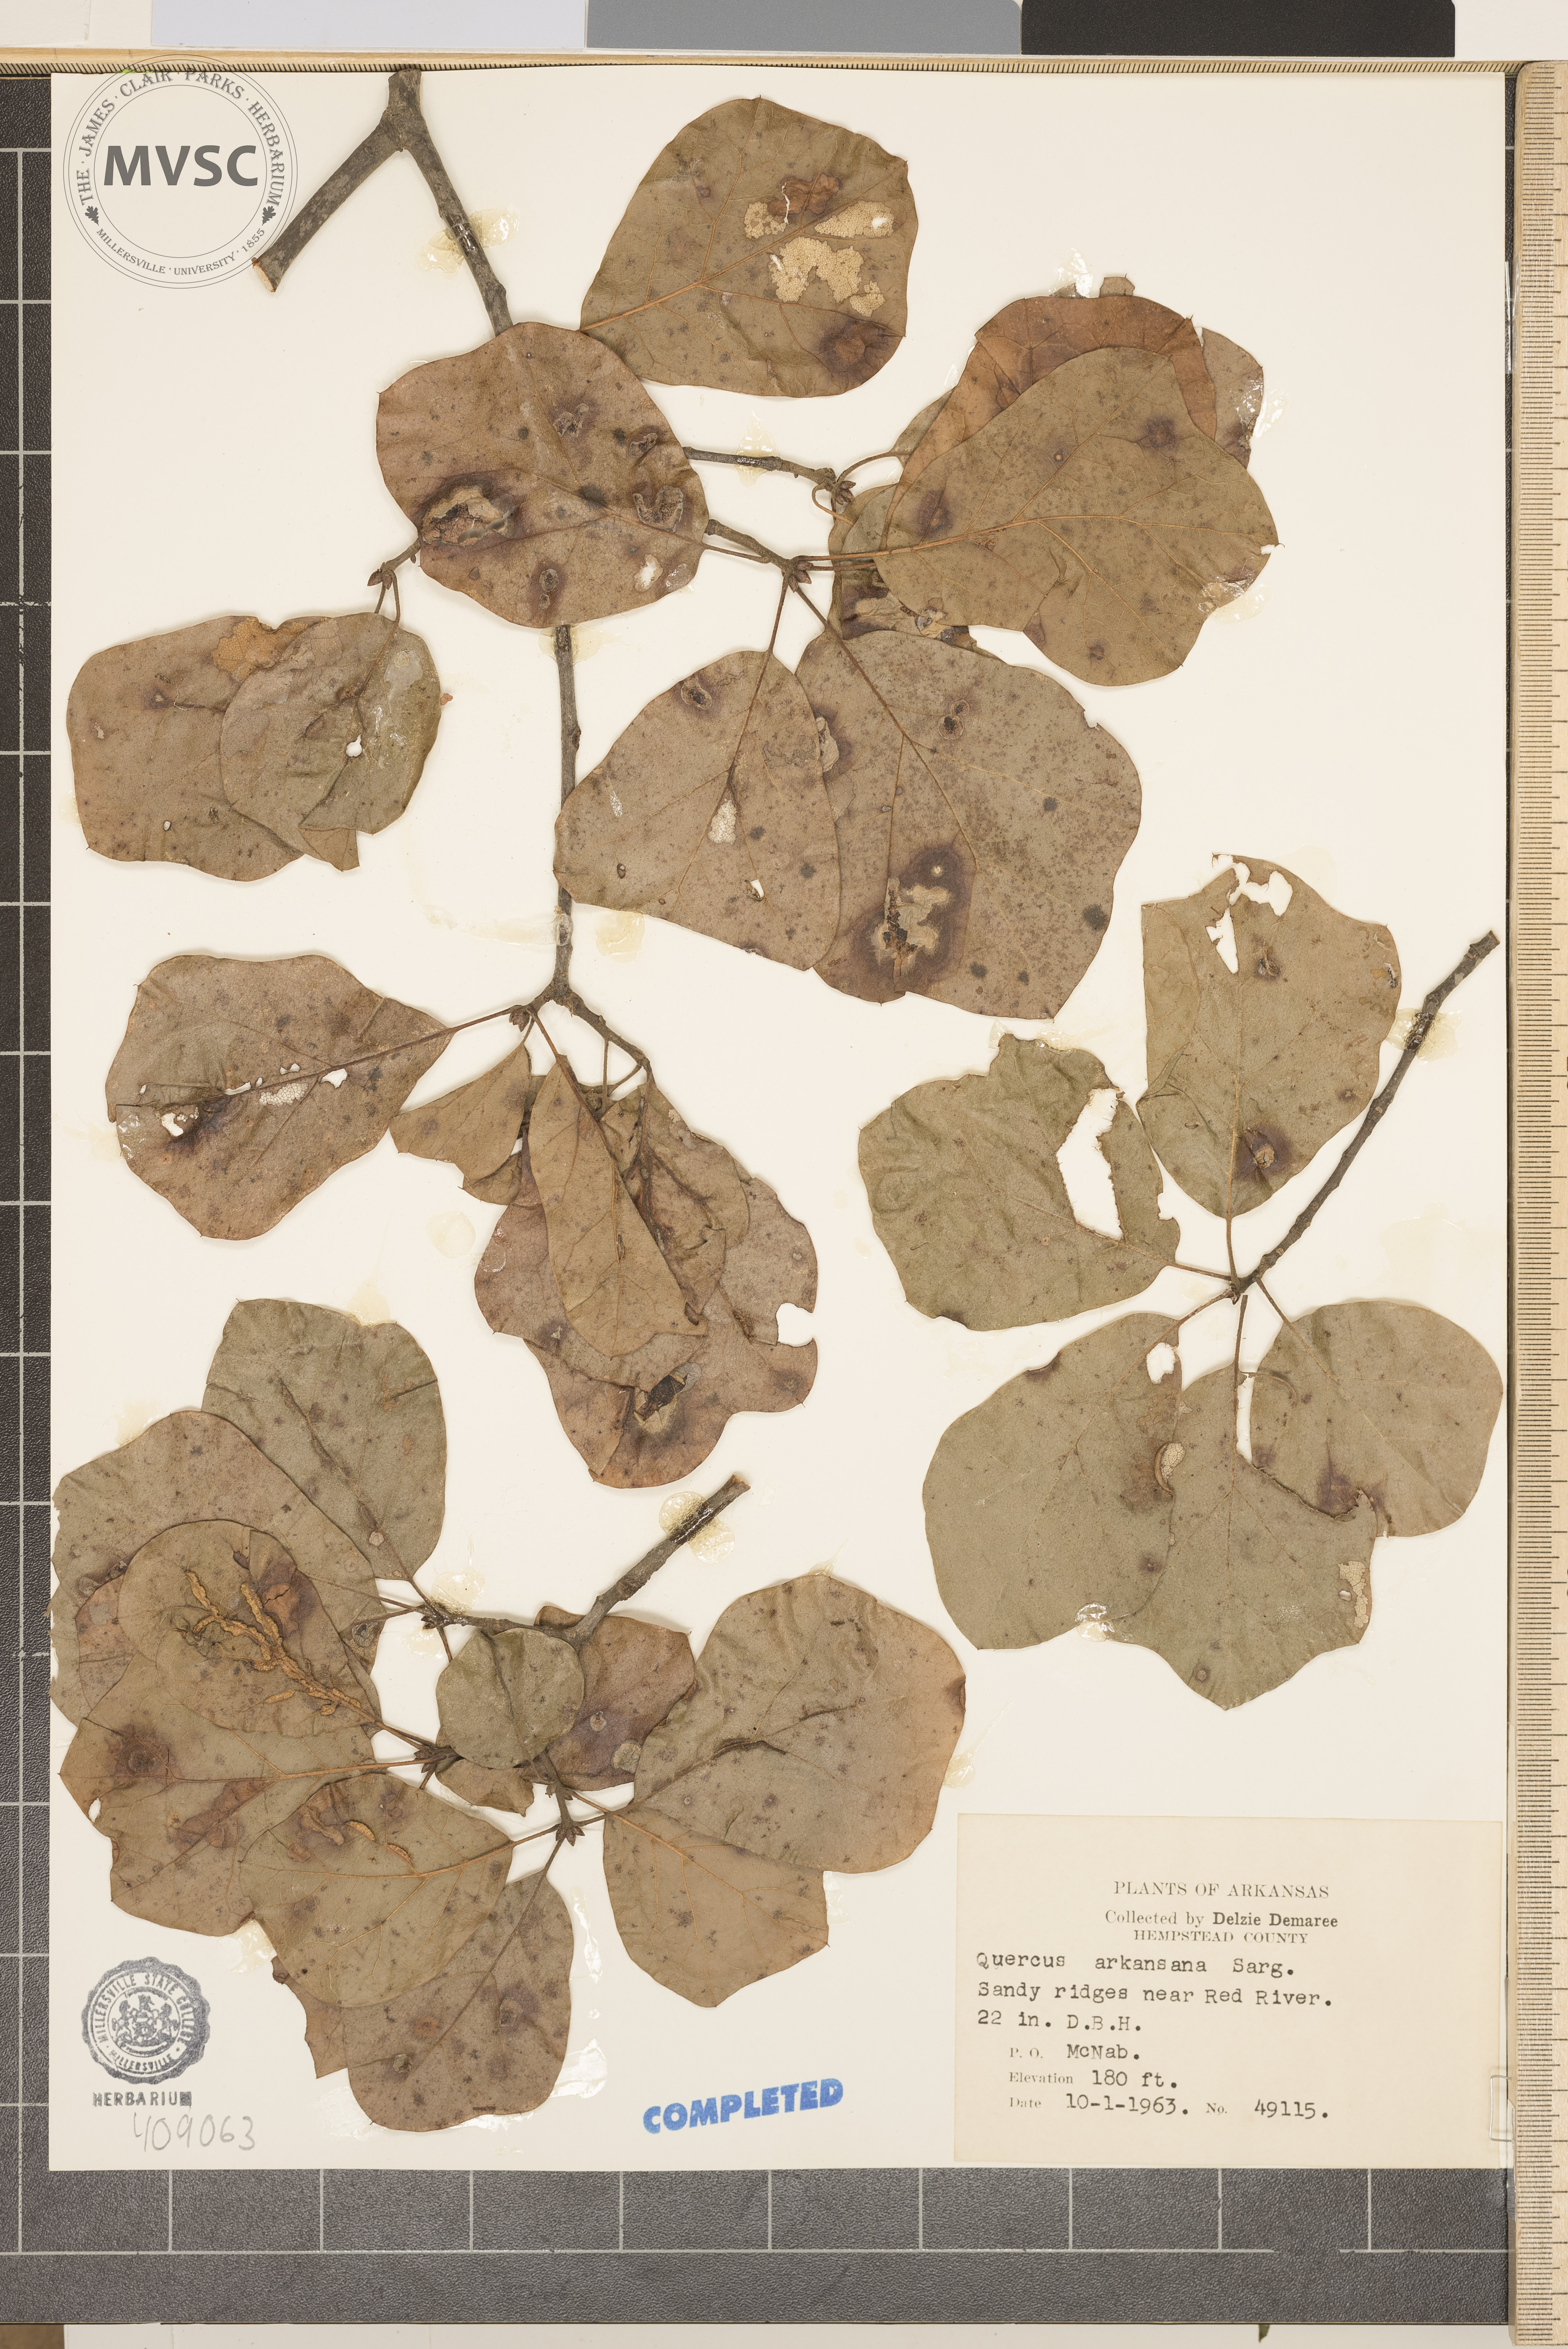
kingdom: Plantae
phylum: Tracheophyta
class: Magnoliopsida
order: Fagales
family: Fagaceae
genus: Quercus
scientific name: Quercus arkansana
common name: Arkansas Oak
